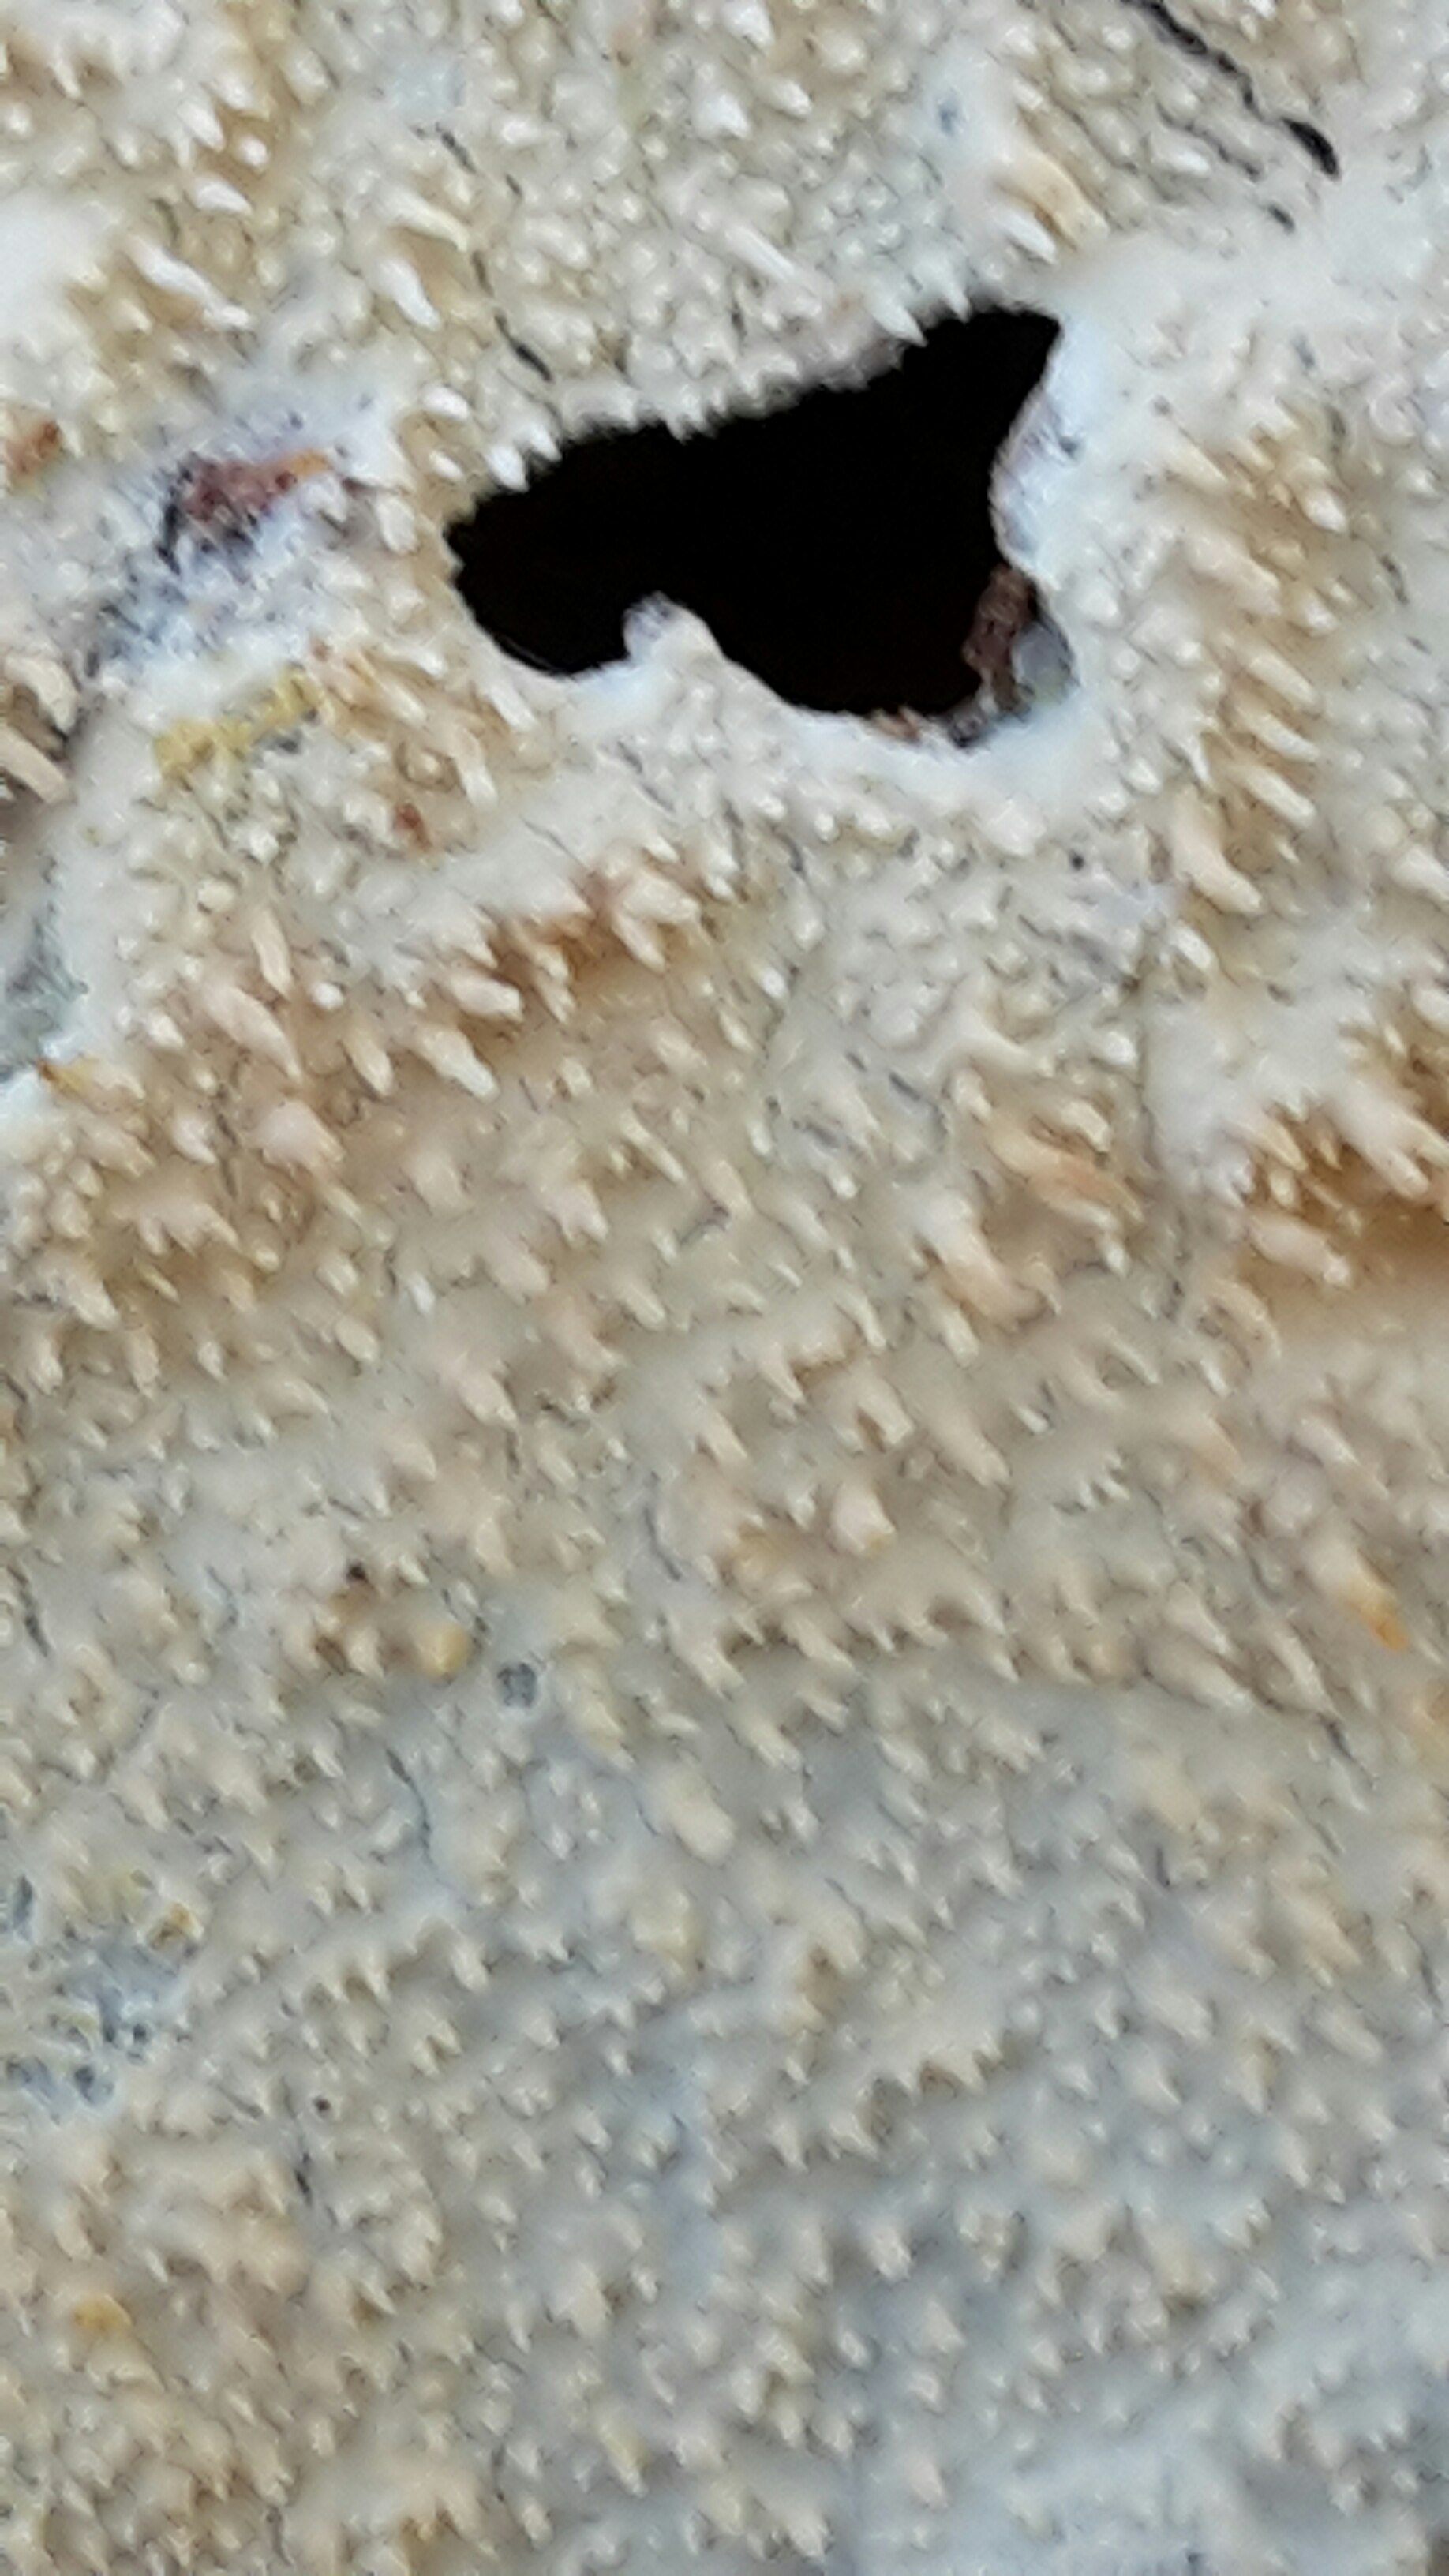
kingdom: Fungi
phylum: Basidiomycota
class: Agaricomycetes
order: Polyporales
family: Steccherinaceae
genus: Steccherinum
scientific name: Steccherinum
